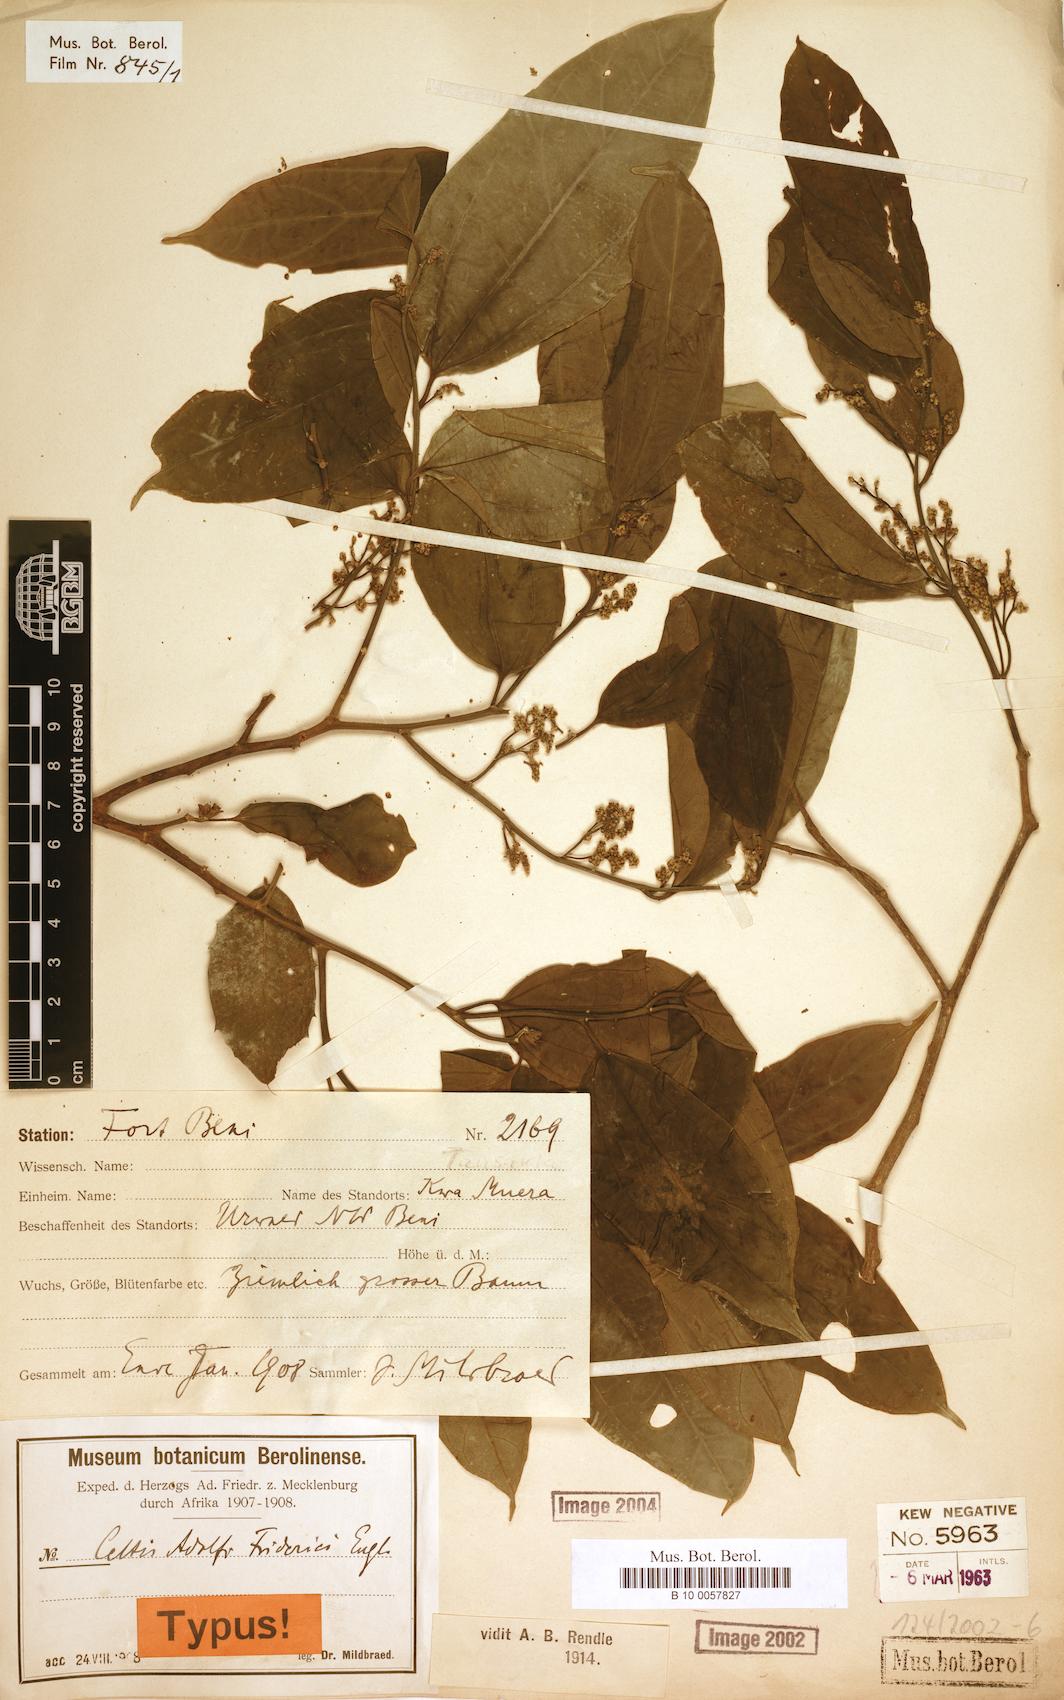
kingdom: Plantae
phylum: Tracheophyta
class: Magnoliopsida
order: Rosales
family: Cannabaceae
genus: Celtis
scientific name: Celtis adolfi-friderici
